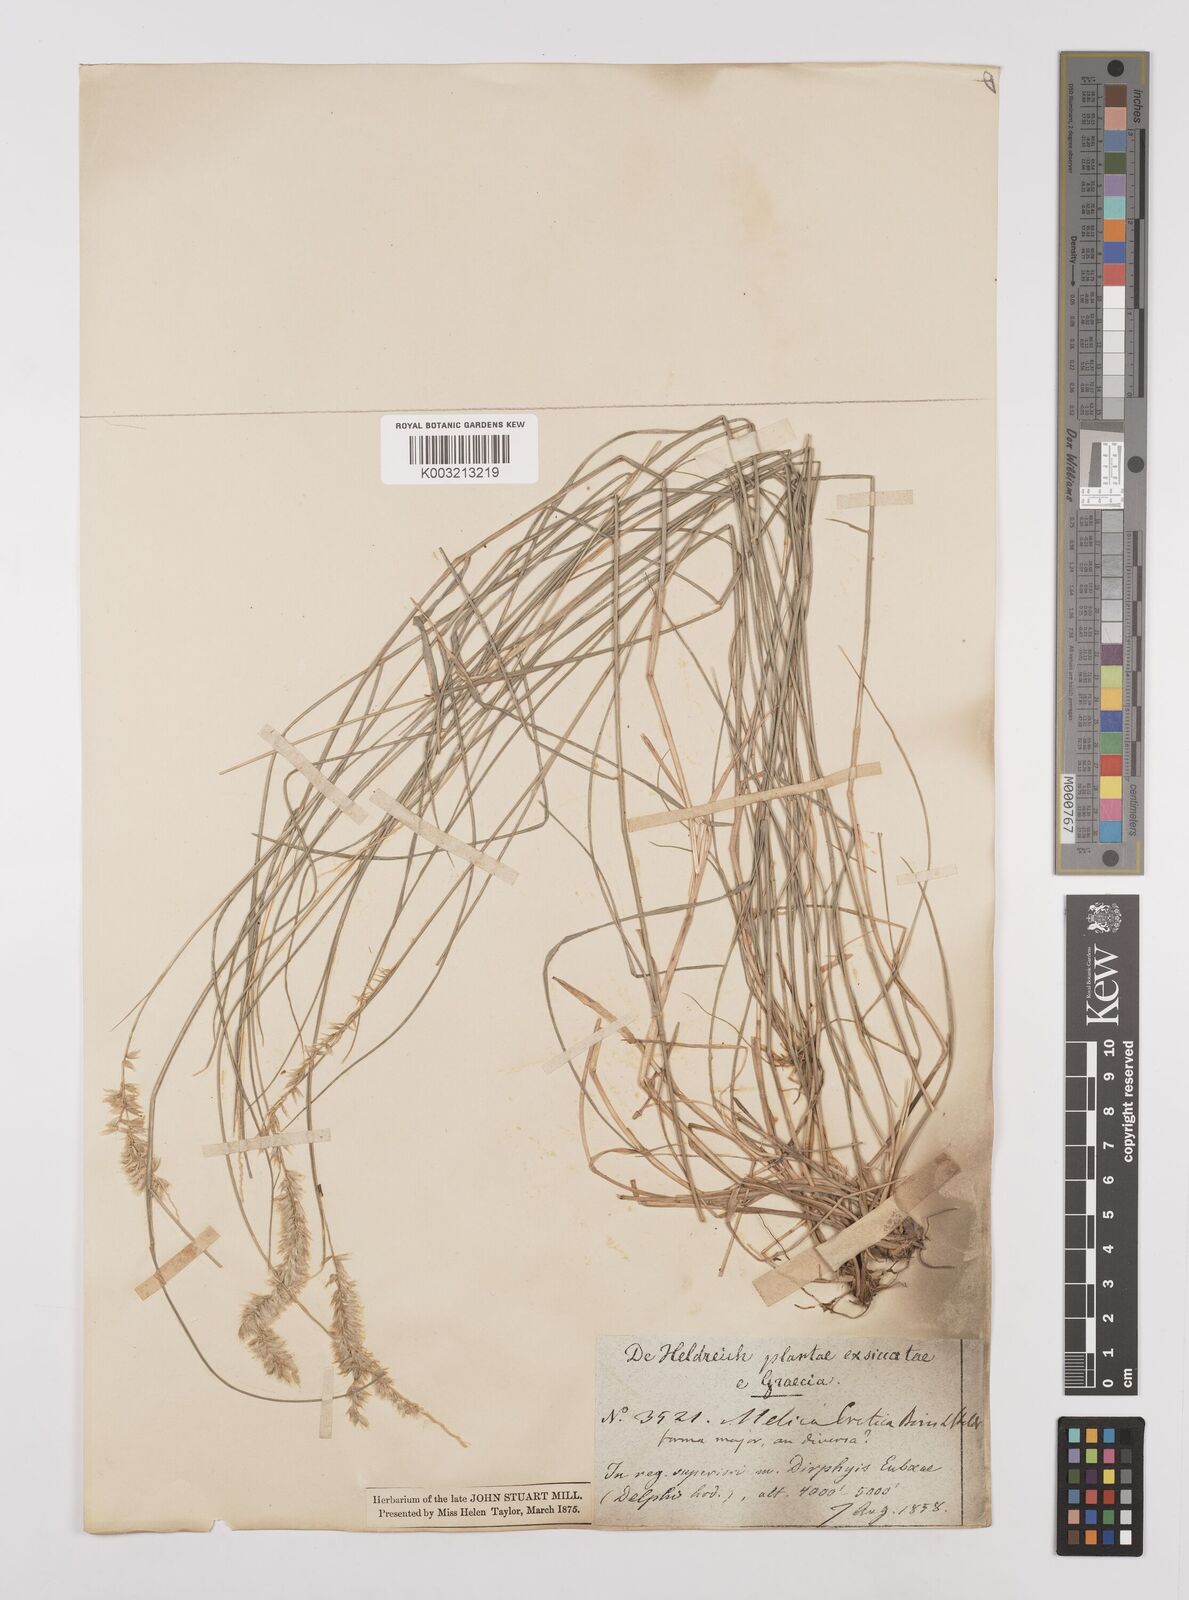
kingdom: Plantae
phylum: Tracheophyta
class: Liliopsida
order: Poales
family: Poaceae
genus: Melica
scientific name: Melica ciliata
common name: Hairy melicgrass
